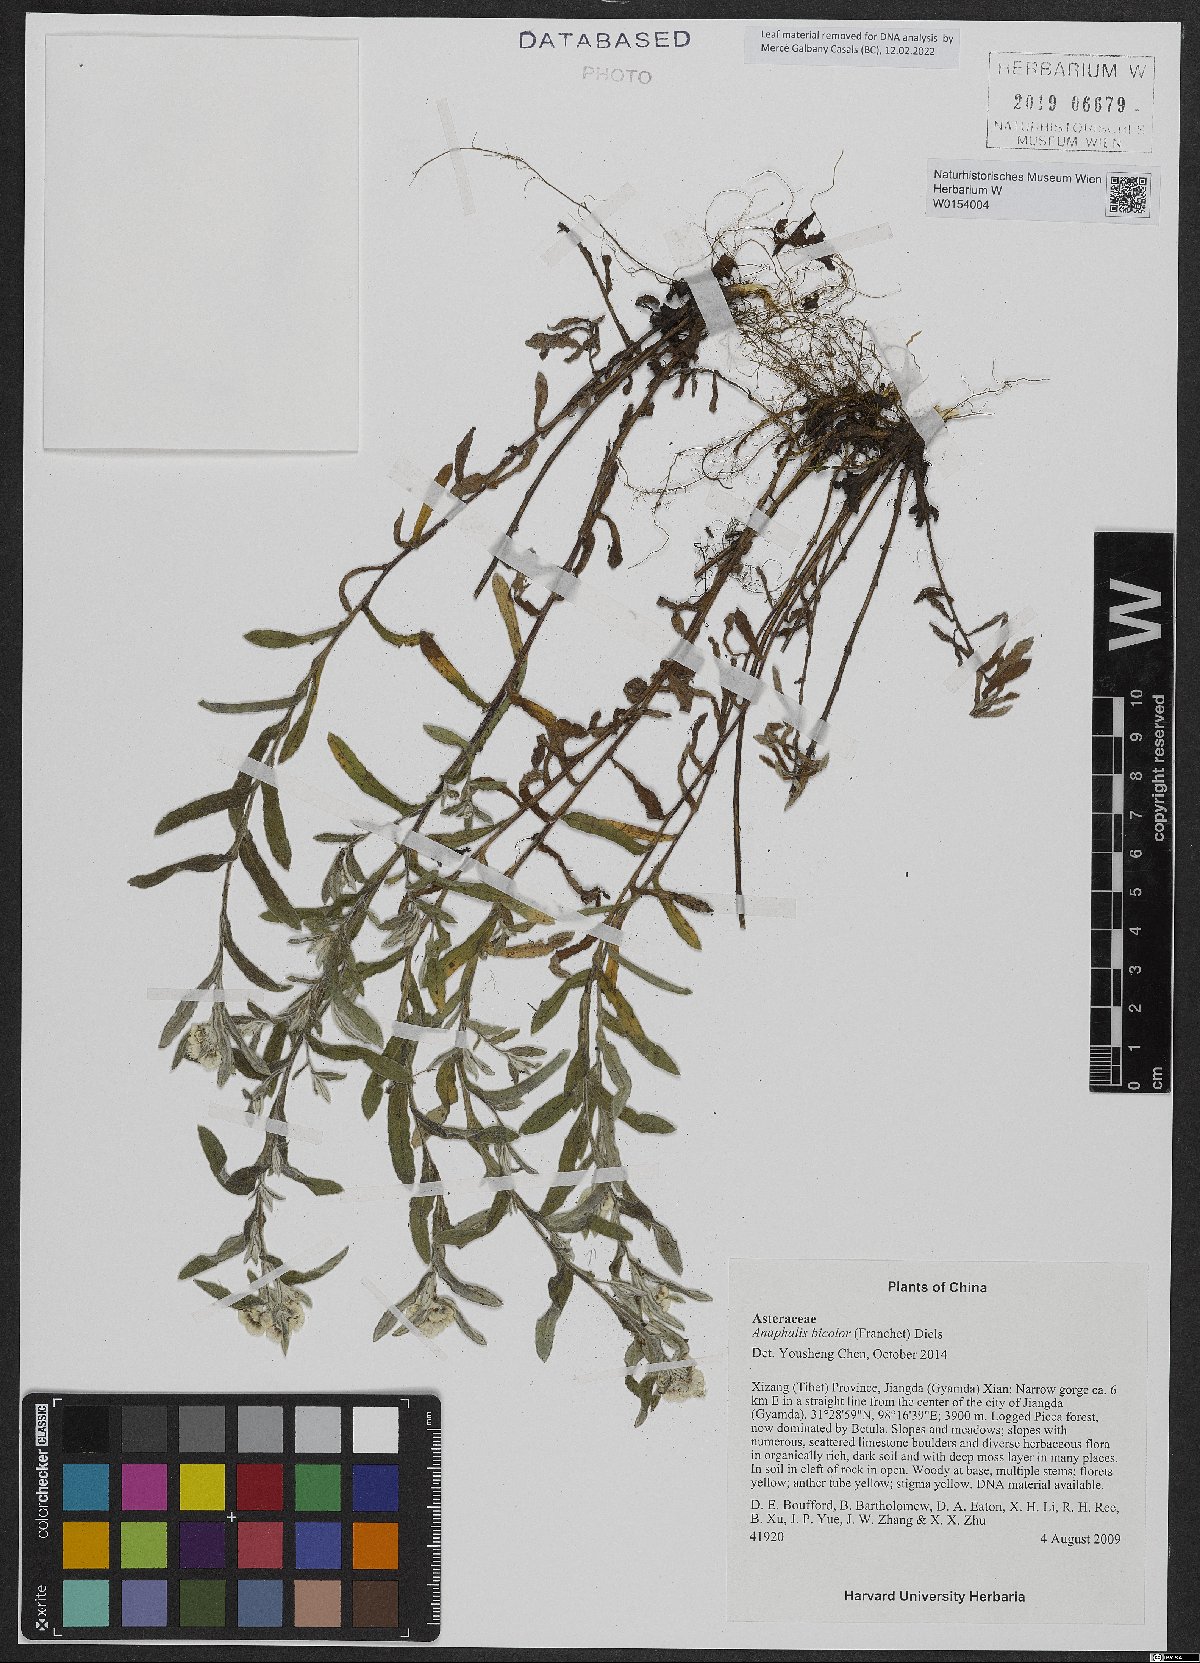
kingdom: Plantae
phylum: Tracheophyta
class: Magnoliopsida
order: Asterales
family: Asteraceae
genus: Anaphalis
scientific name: Anaphalis bicolor
